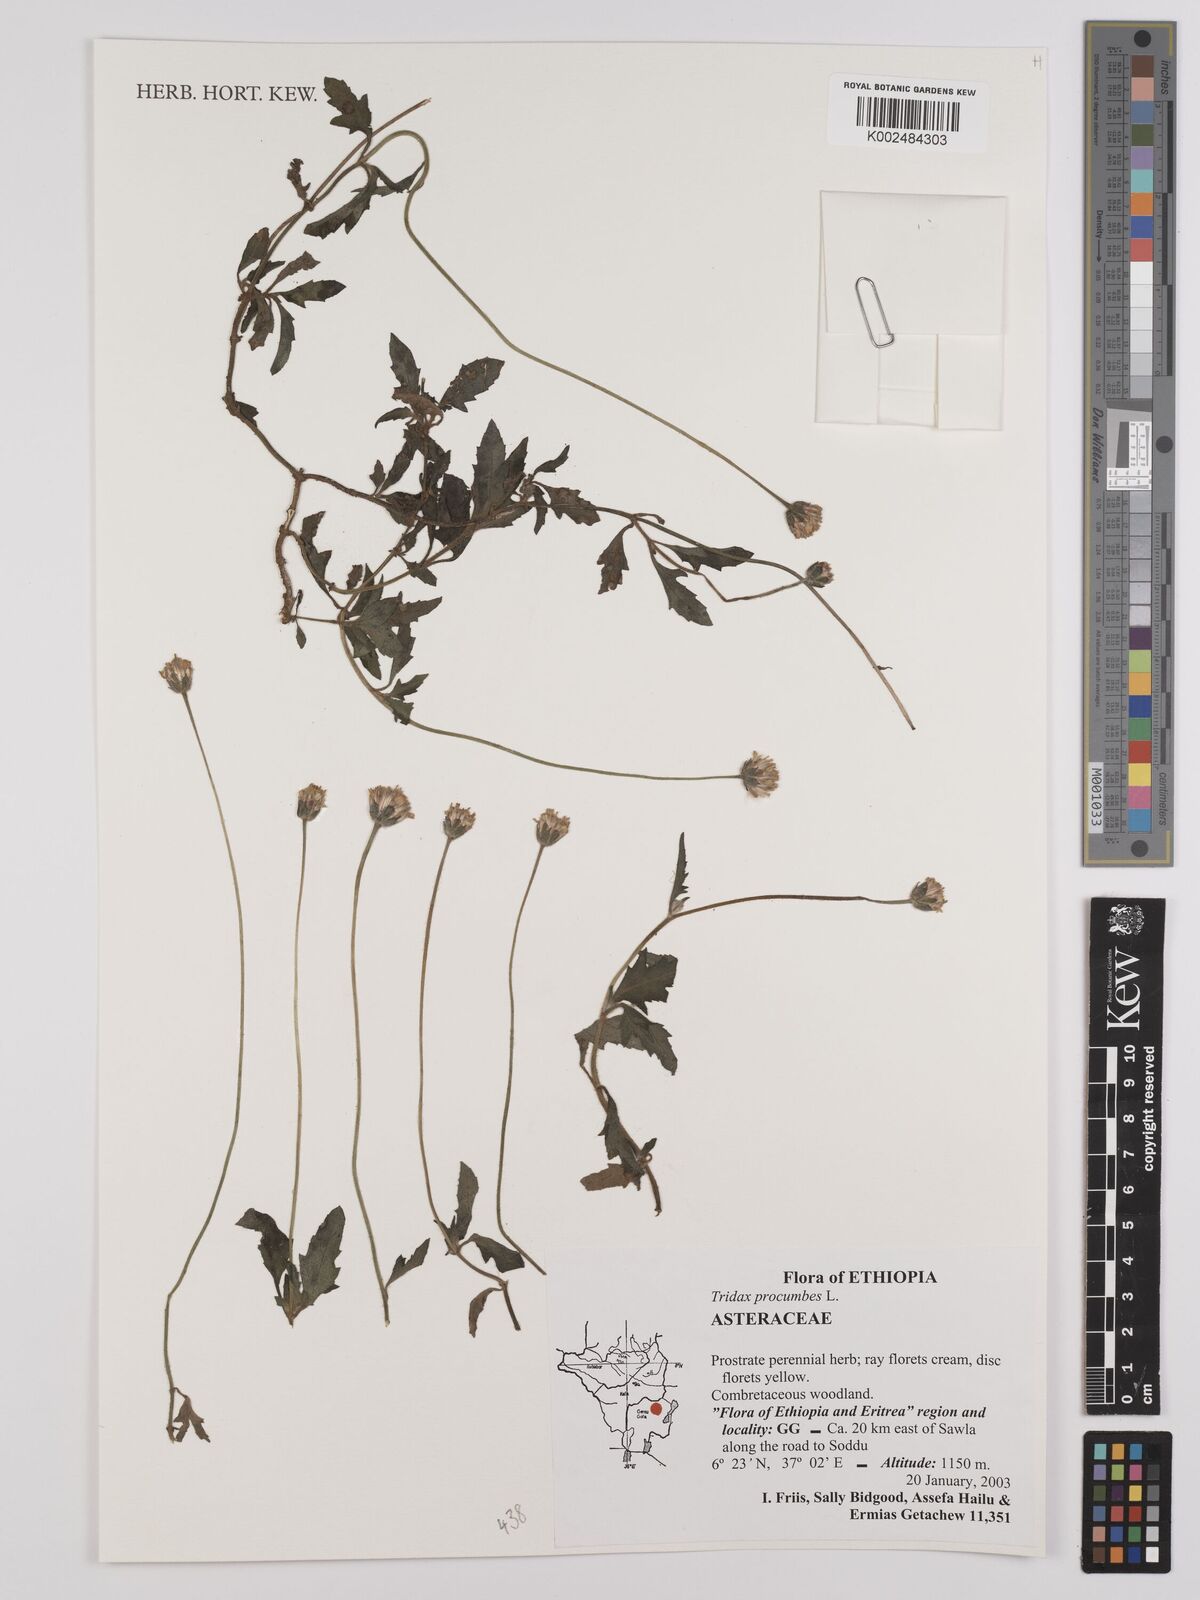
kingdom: Plantae
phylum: Tracheophyta
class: Magnoliopsida
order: Asterales
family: Asteraceae
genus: Tridax
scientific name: Tridax procumbens
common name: Coatbuttons
